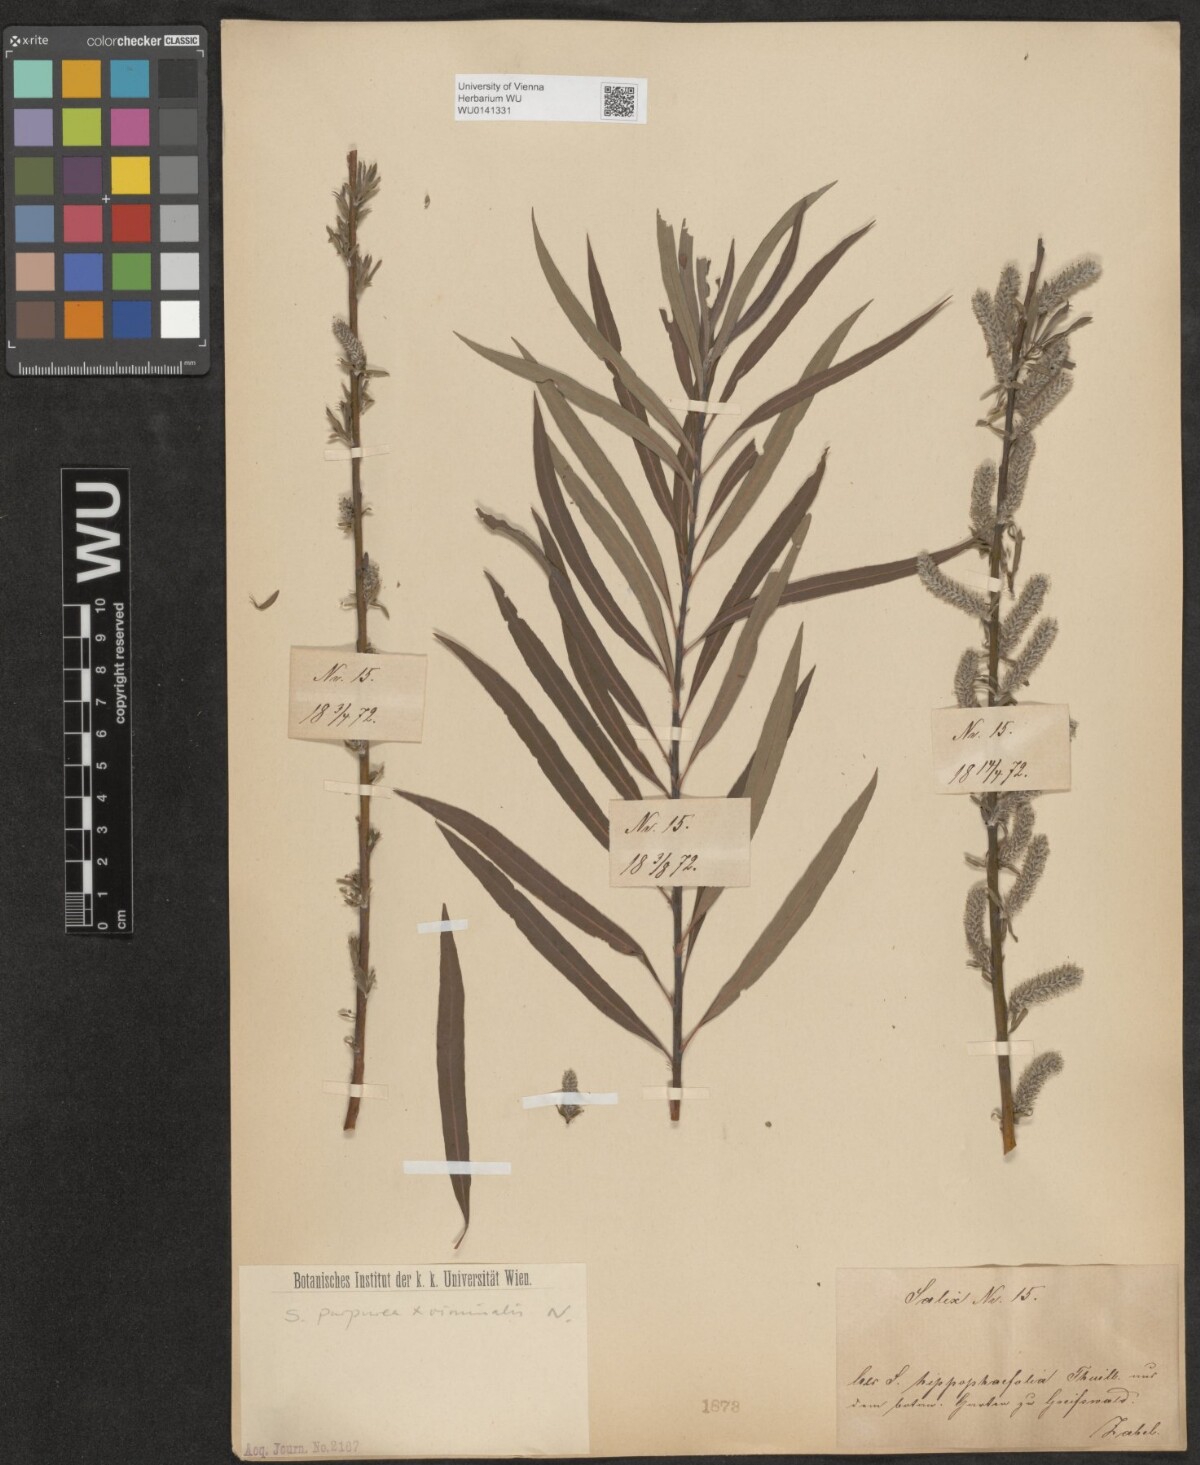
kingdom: Plantae
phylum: Tracheophyta
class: Magnoliopsida
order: Malpighiales
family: Salicaceae
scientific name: Salicaceae
